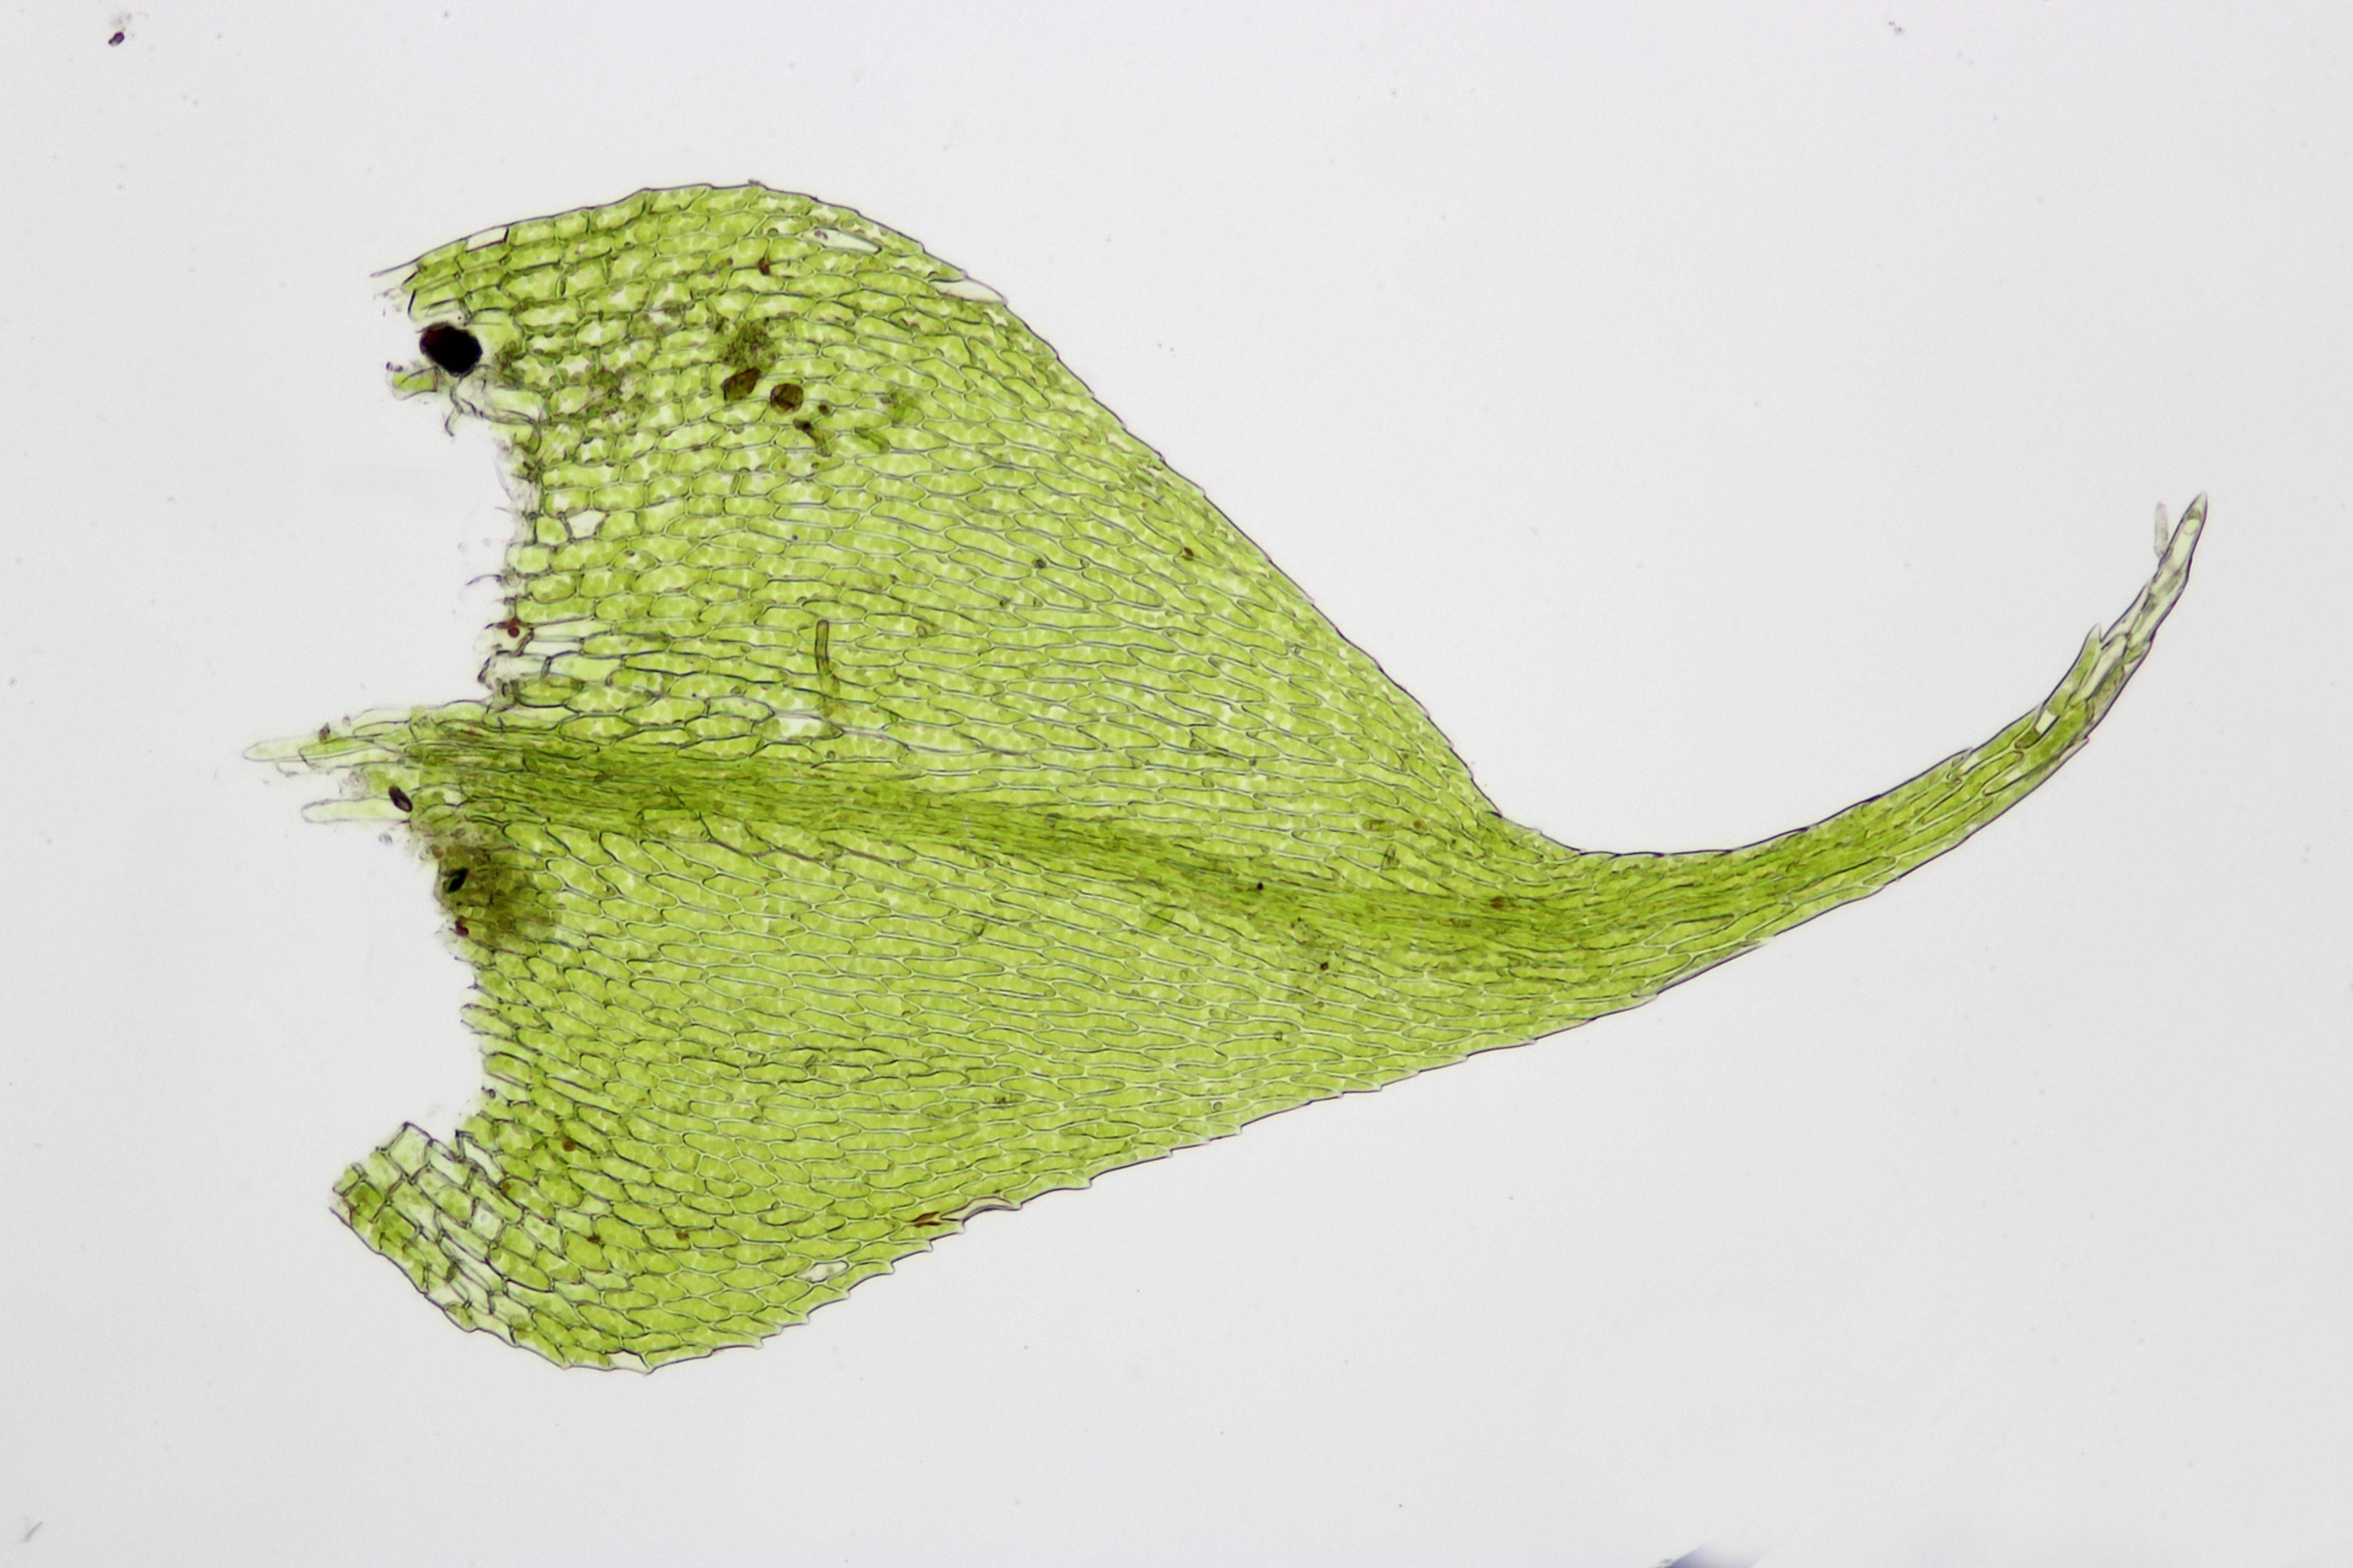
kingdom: Plantae
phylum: Bryophyta
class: Bryopsida
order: Hypnales
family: Brachytheciaceae
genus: Sciuro-hypnum
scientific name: Sciuro-hypnum reflexum
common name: Elle-kortkapsel
